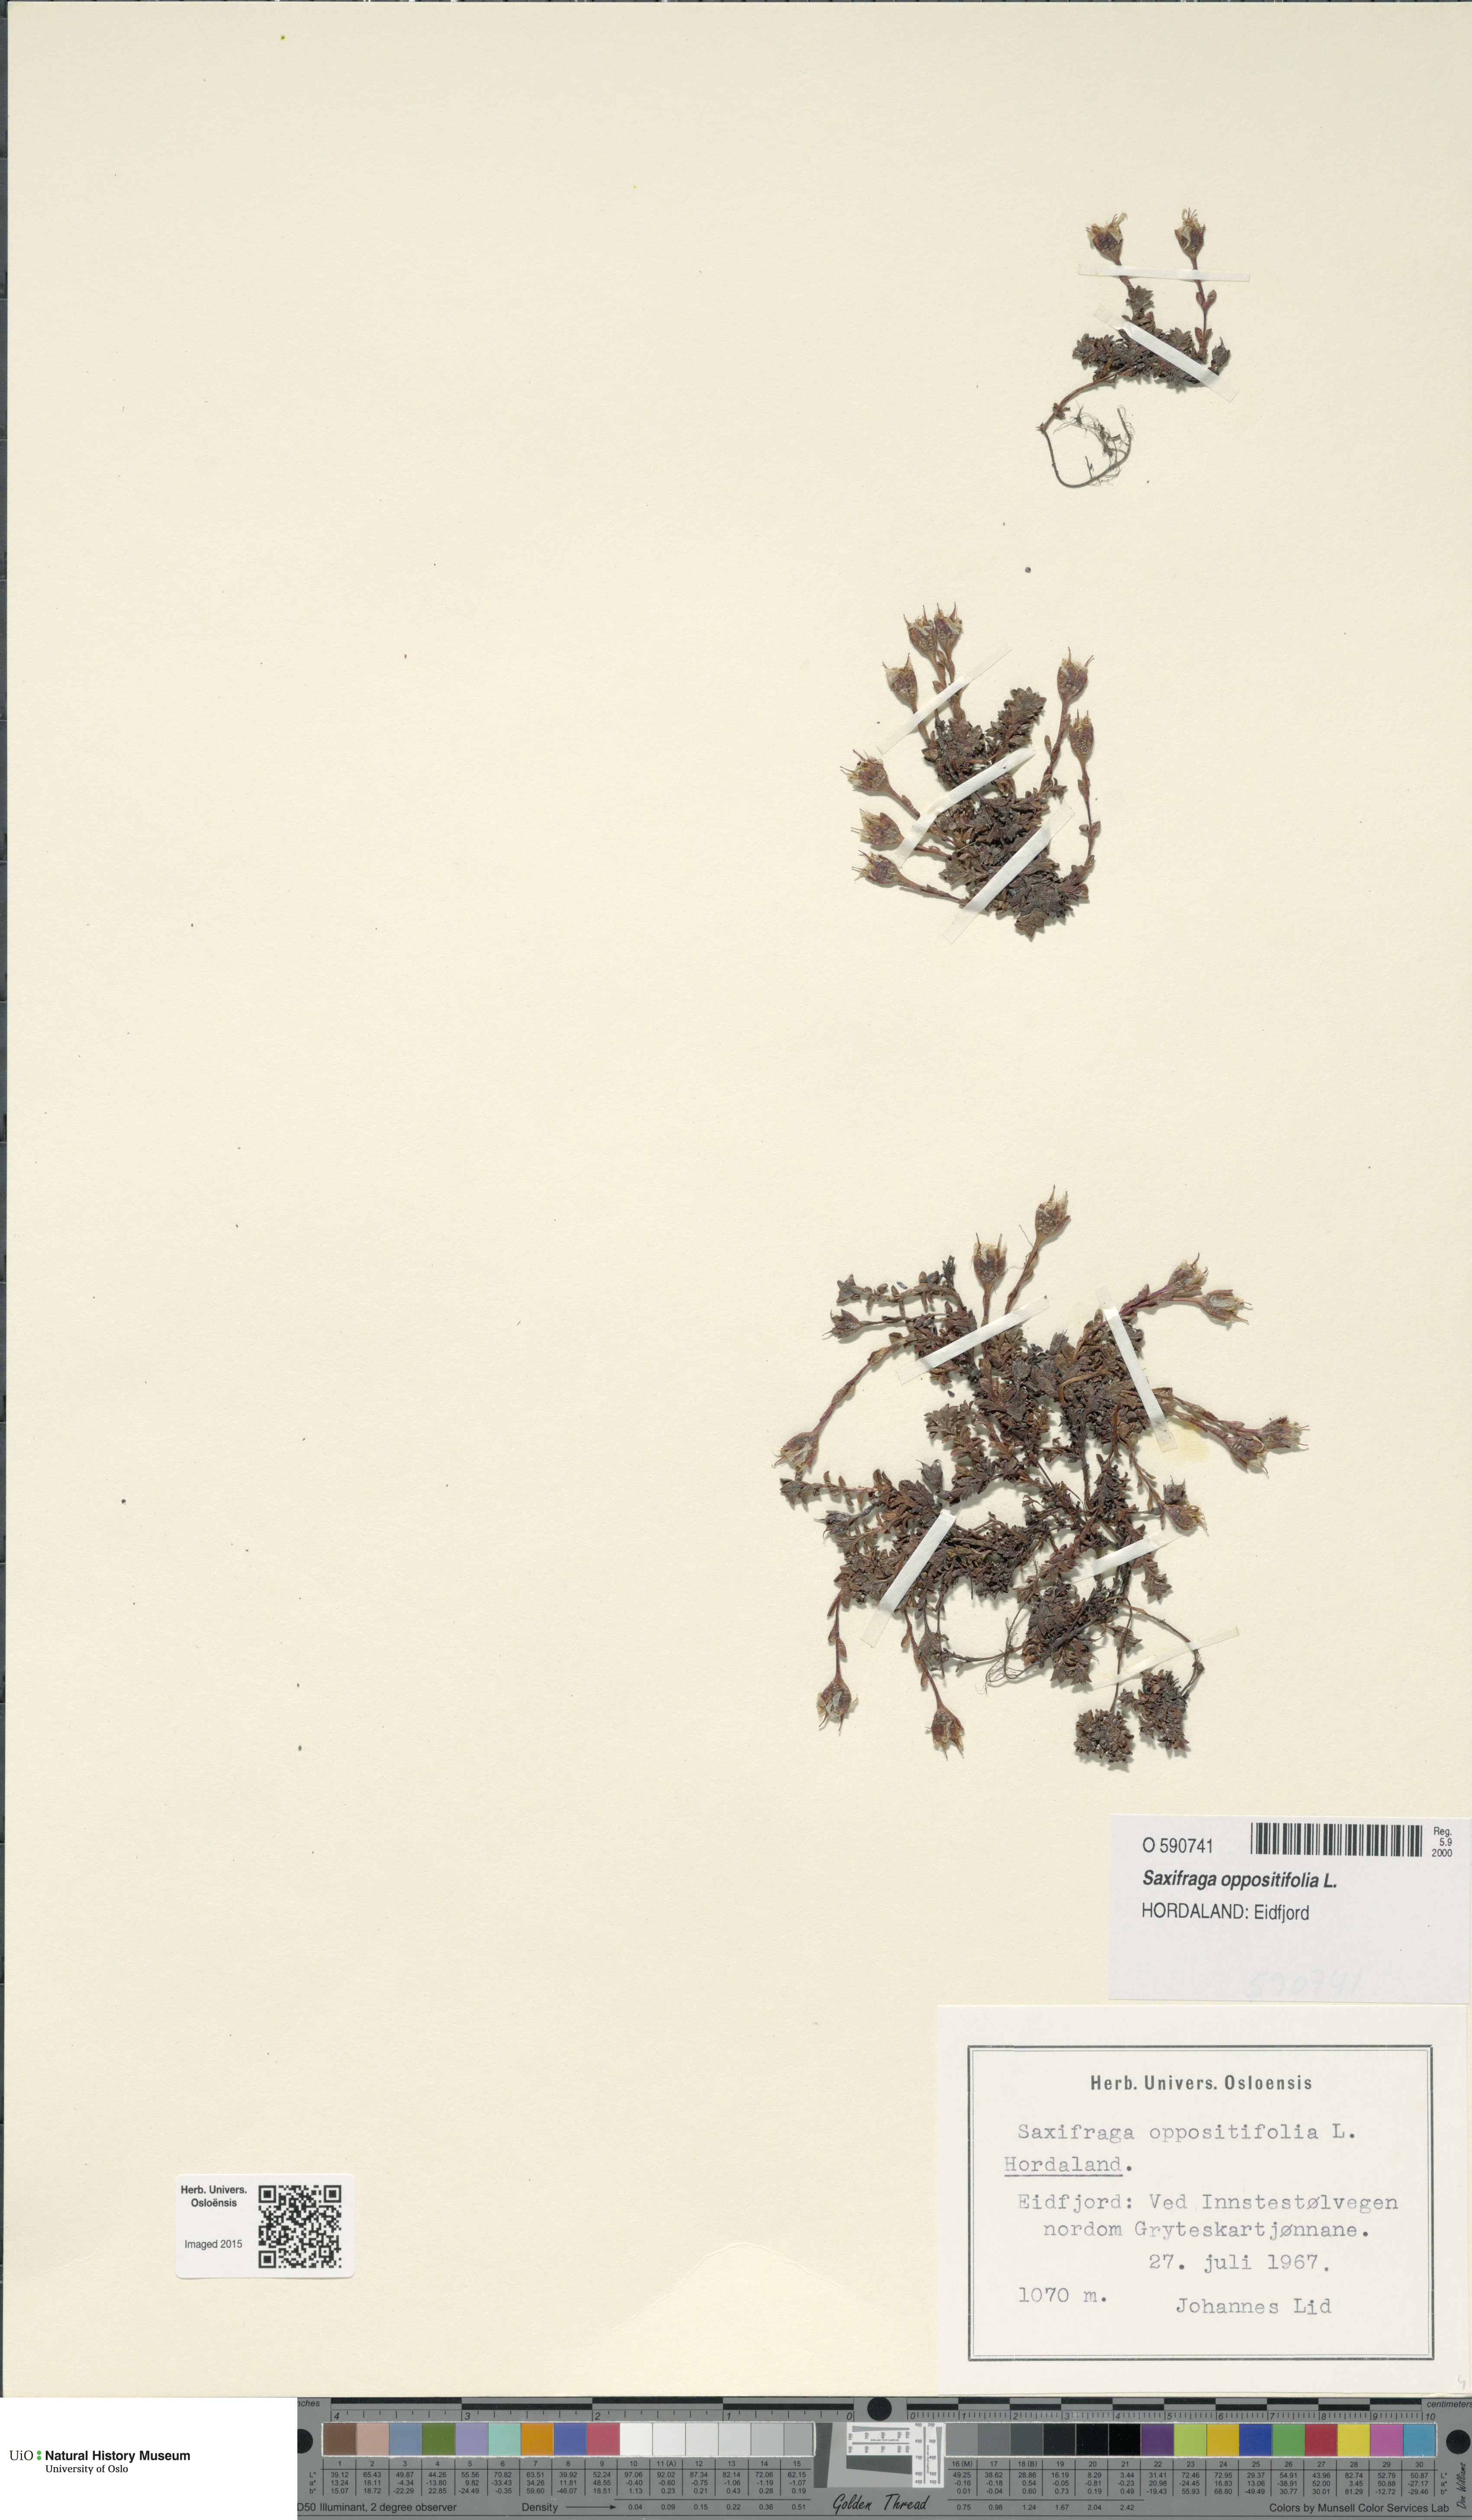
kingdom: Plantae
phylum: Tracheophyta
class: Magnoliopsida
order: Saxifragales
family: Saxifragaceae
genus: Saxifraga
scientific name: Saxifraga oppositifolia
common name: Purple saxifrage
